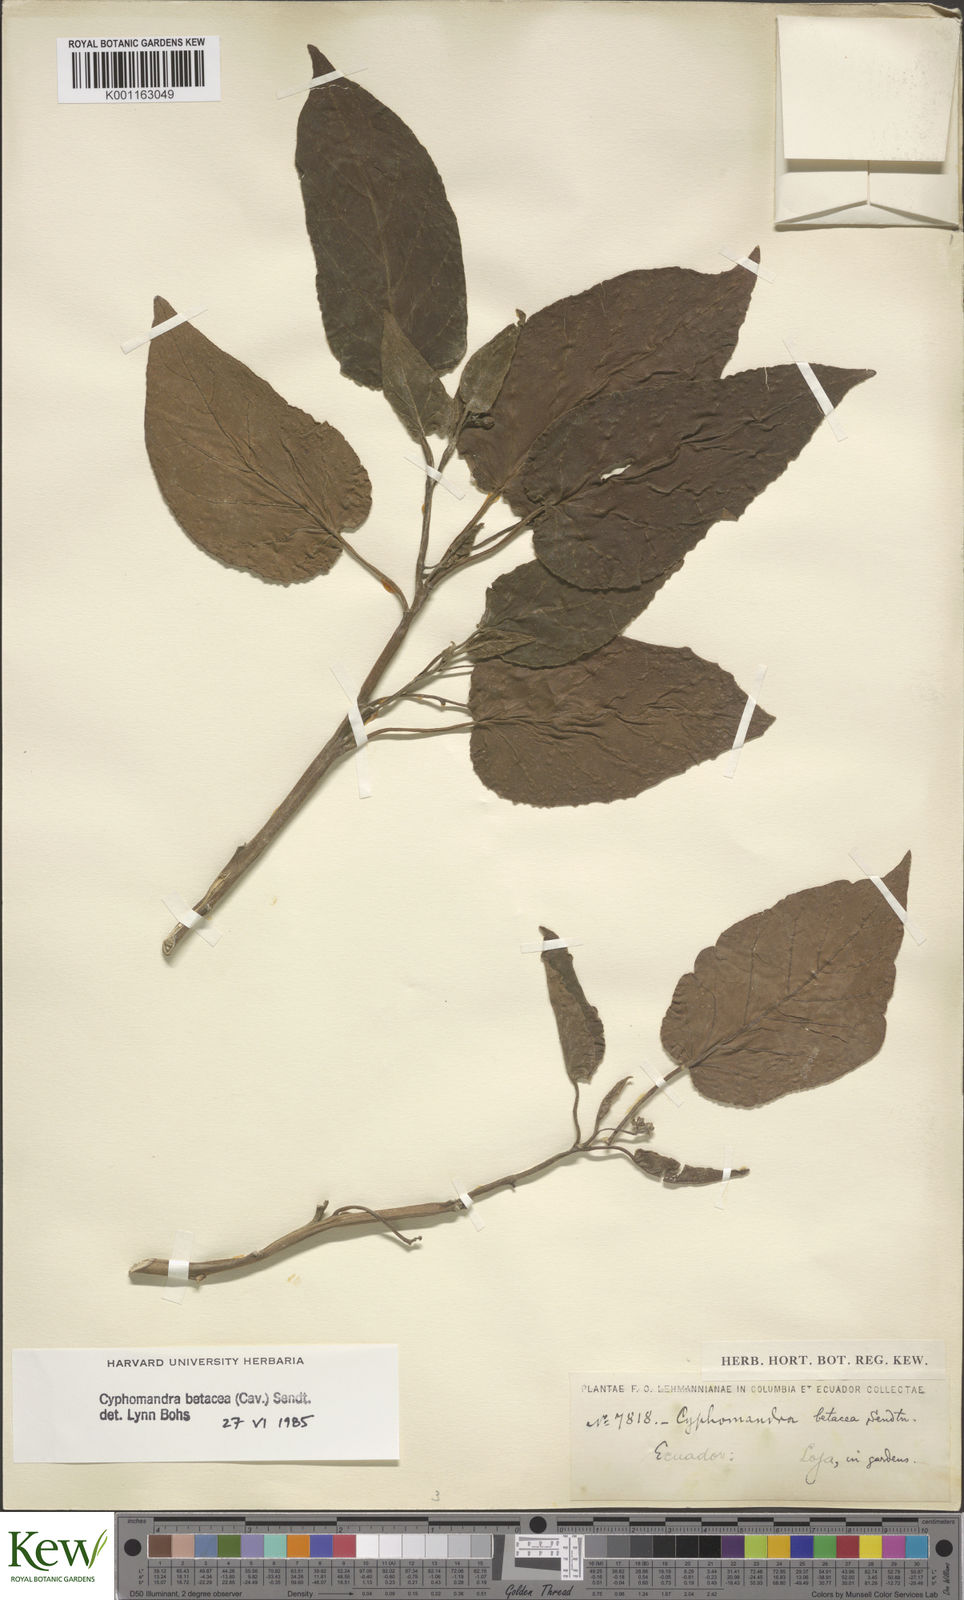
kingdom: Plantae
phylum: Tracheophyta
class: Magnoliopsida
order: Solanales
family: Solanaceae
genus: Solanum
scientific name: Solanum betaceum
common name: Tamarillo
